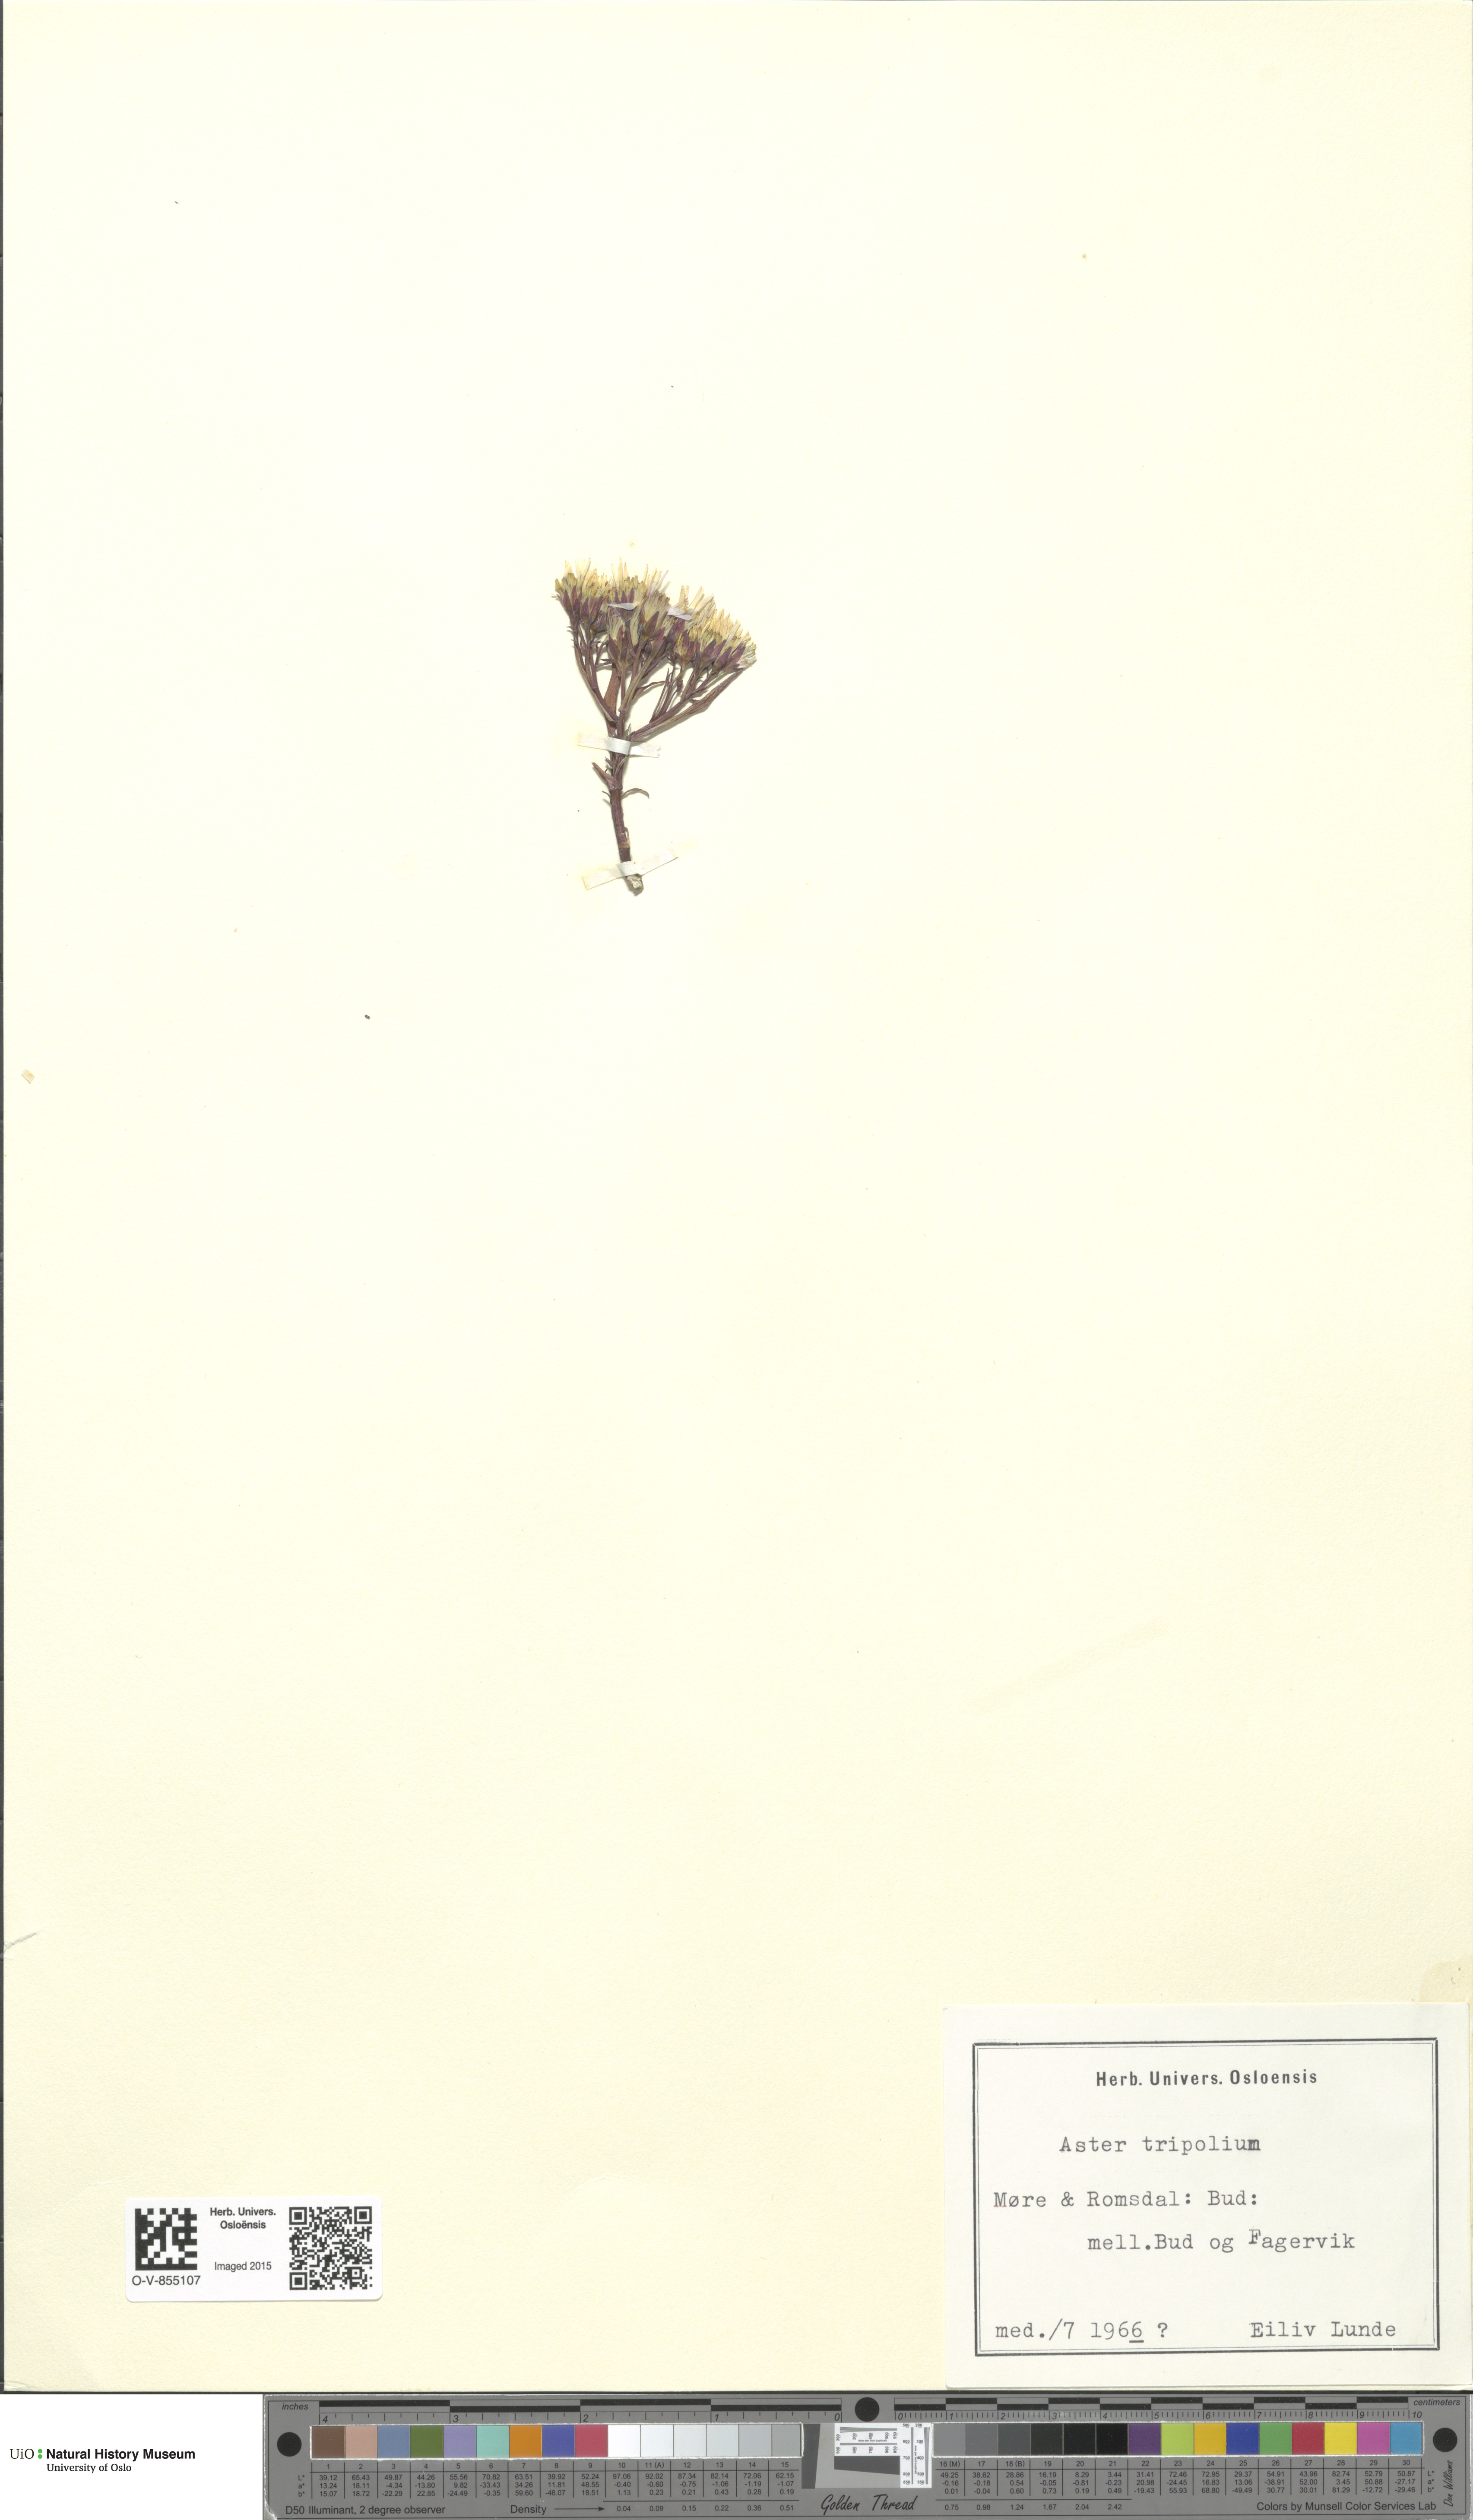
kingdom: Plantae
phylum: Tracheophyta
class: Magnoliopsida
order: Asterales
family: Asteraceae
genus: Tripolium
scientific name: Tripolium pannonicum
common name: Sea aster
